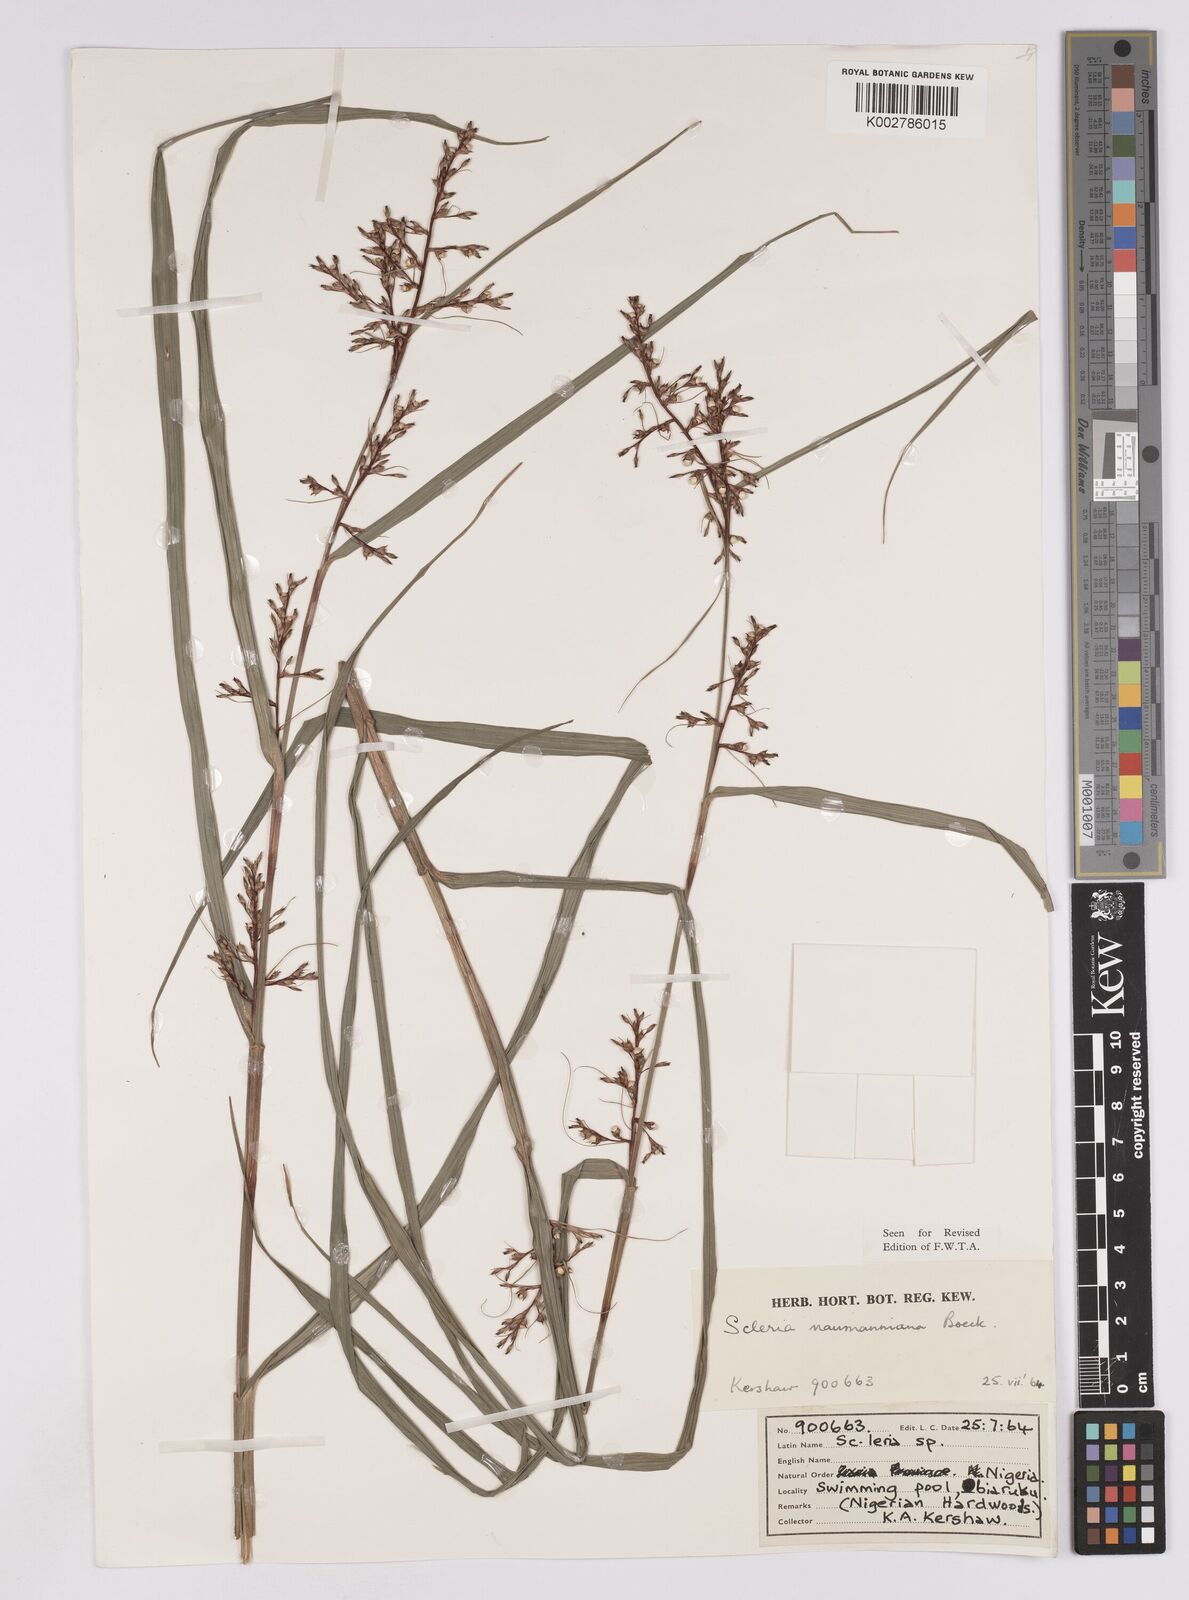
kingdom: Plantae
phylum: Tracheophyta
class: Liliopsida
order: Poales
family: Cyperaceae
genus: Scleria
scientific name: Scleria naumanniana
